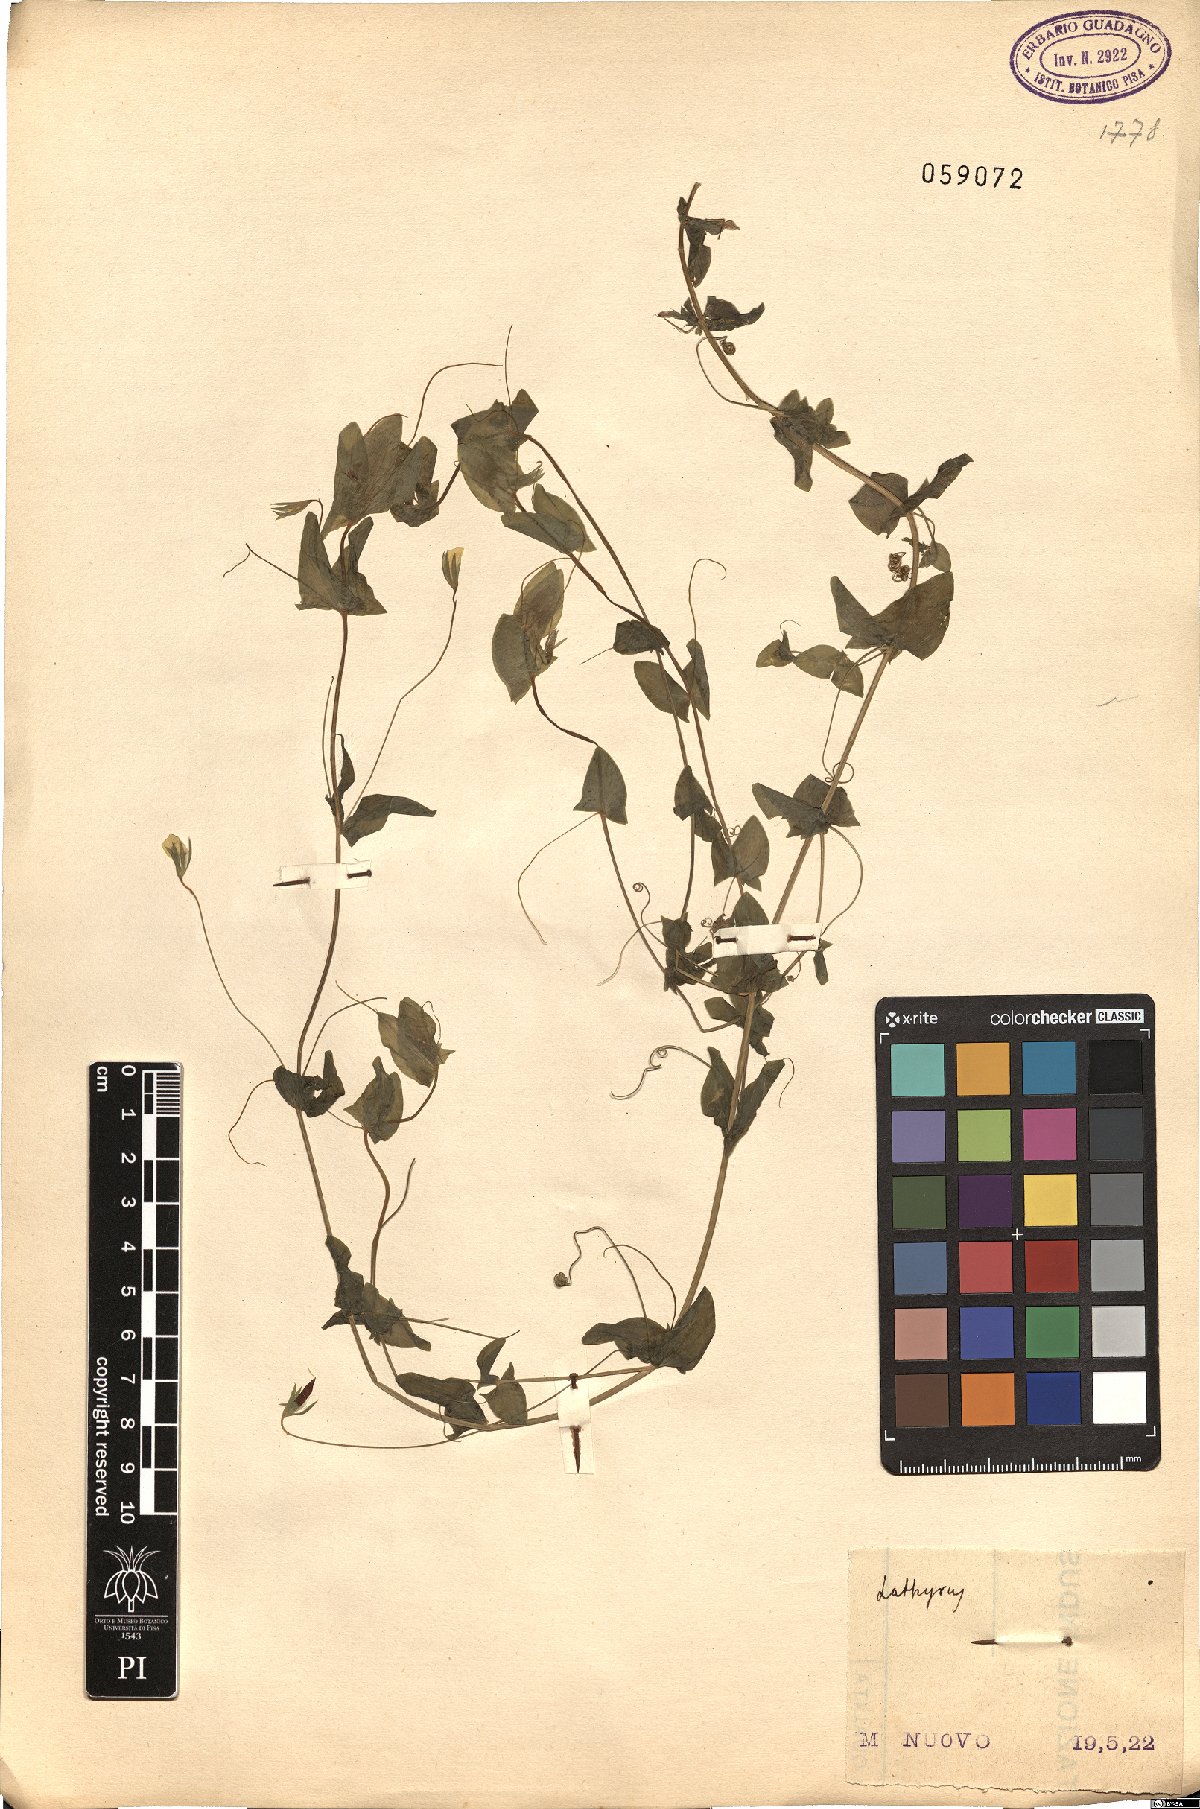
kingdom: Plantae
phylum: Tracheophyta
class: Magnoliopsida
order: Fabales
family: Fabaceae
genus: Lathyrus
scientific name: Lathyrus
